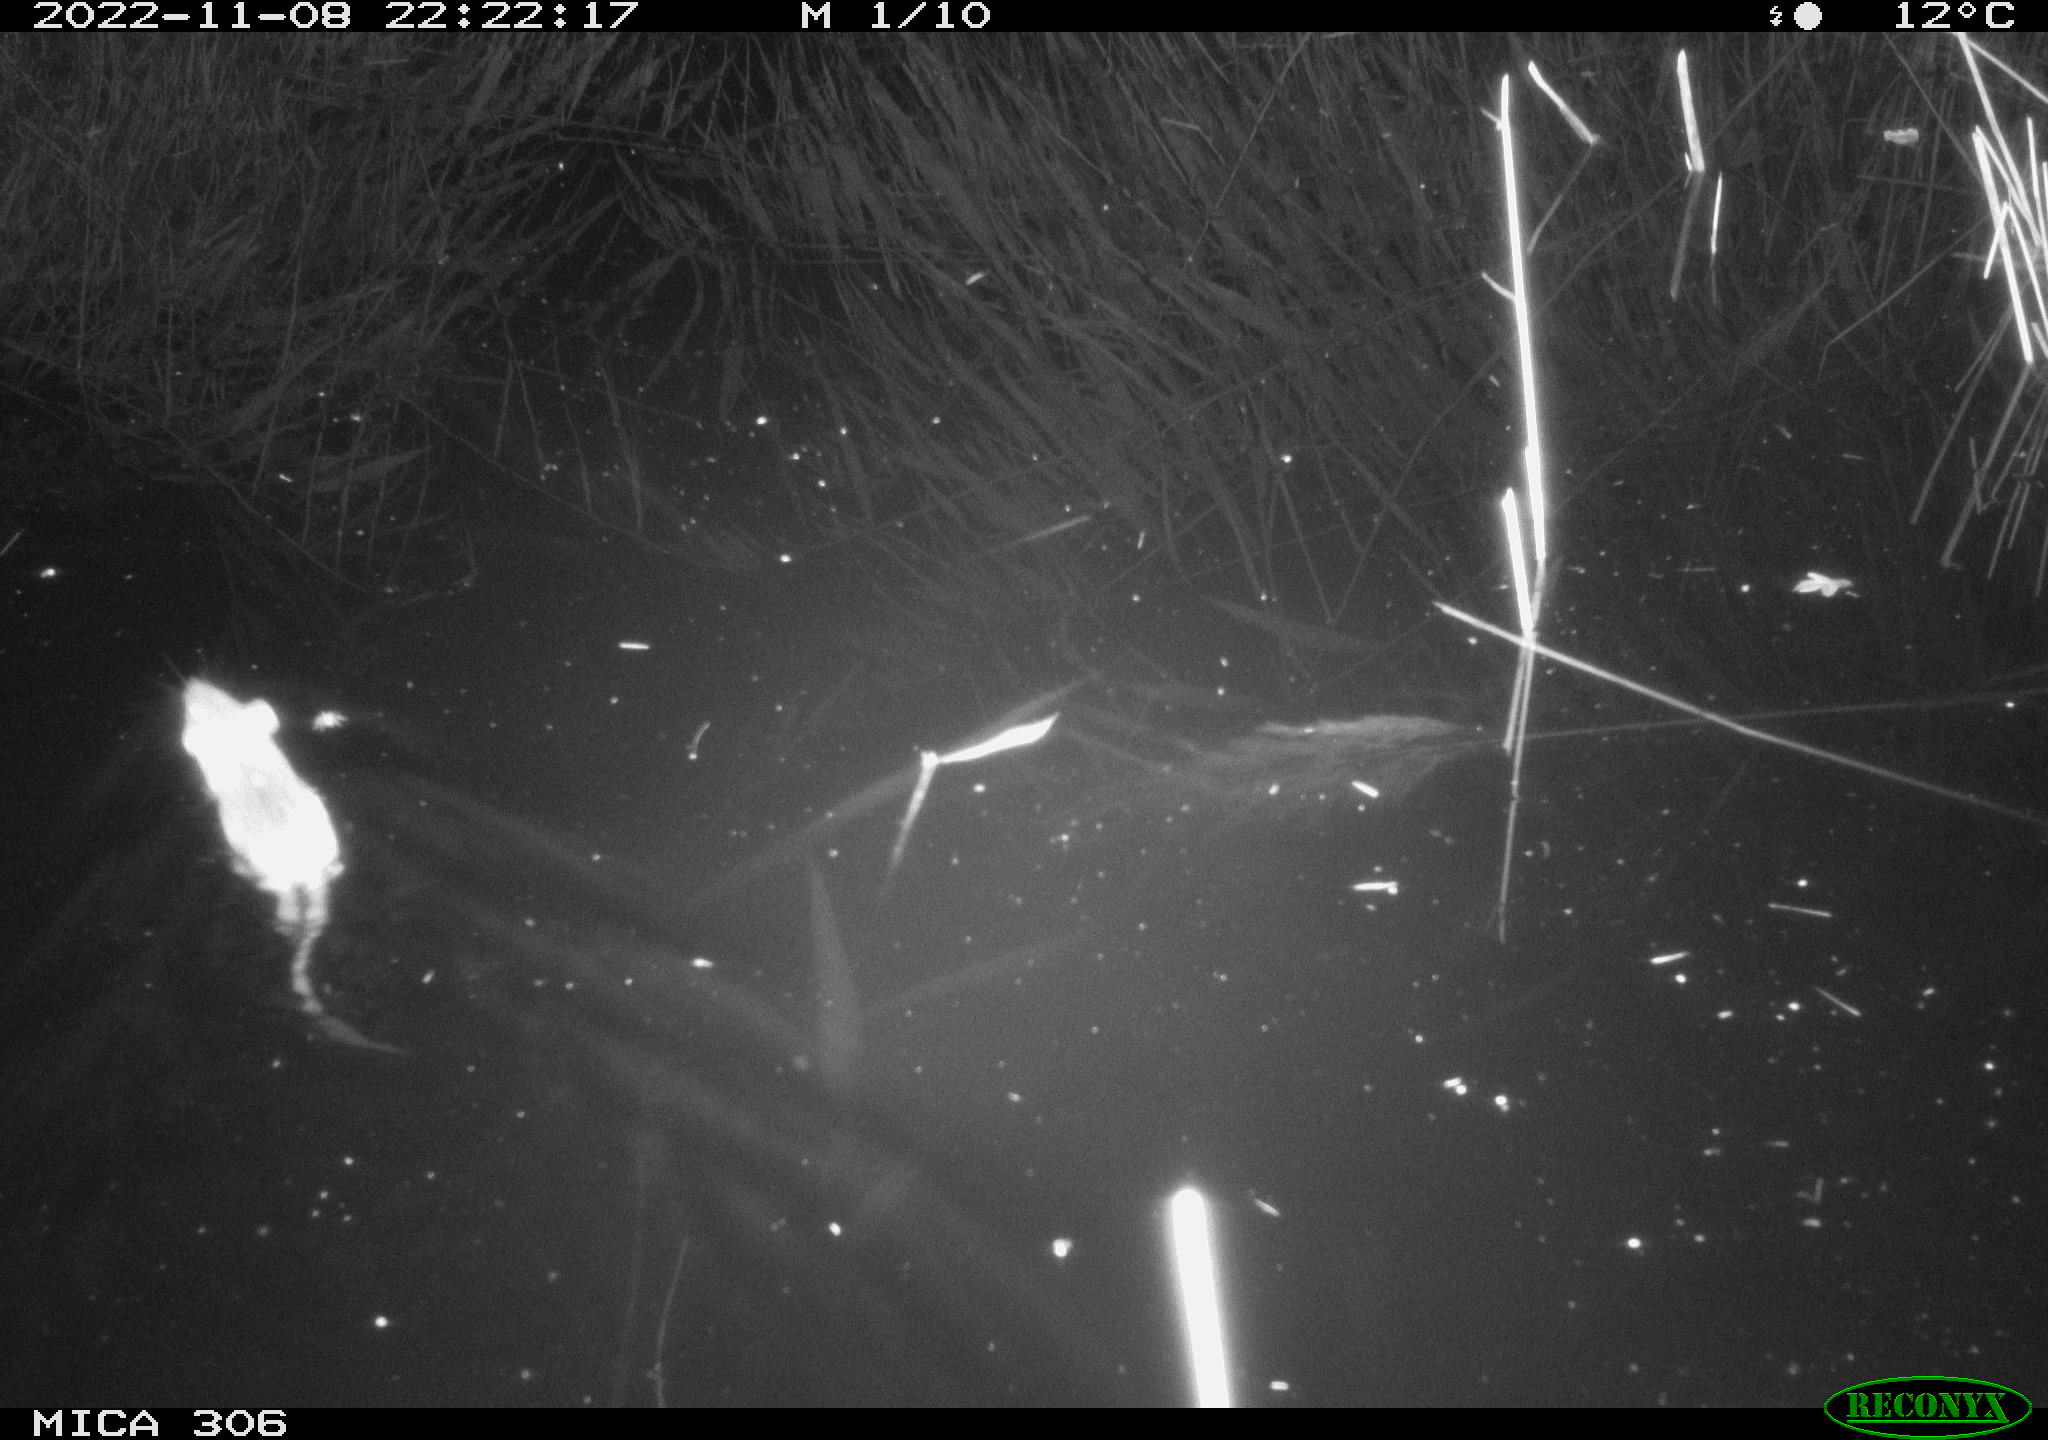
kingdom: Animalia
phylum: Chordata
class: Mammalia
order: Rodentia
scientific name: Rodentia
